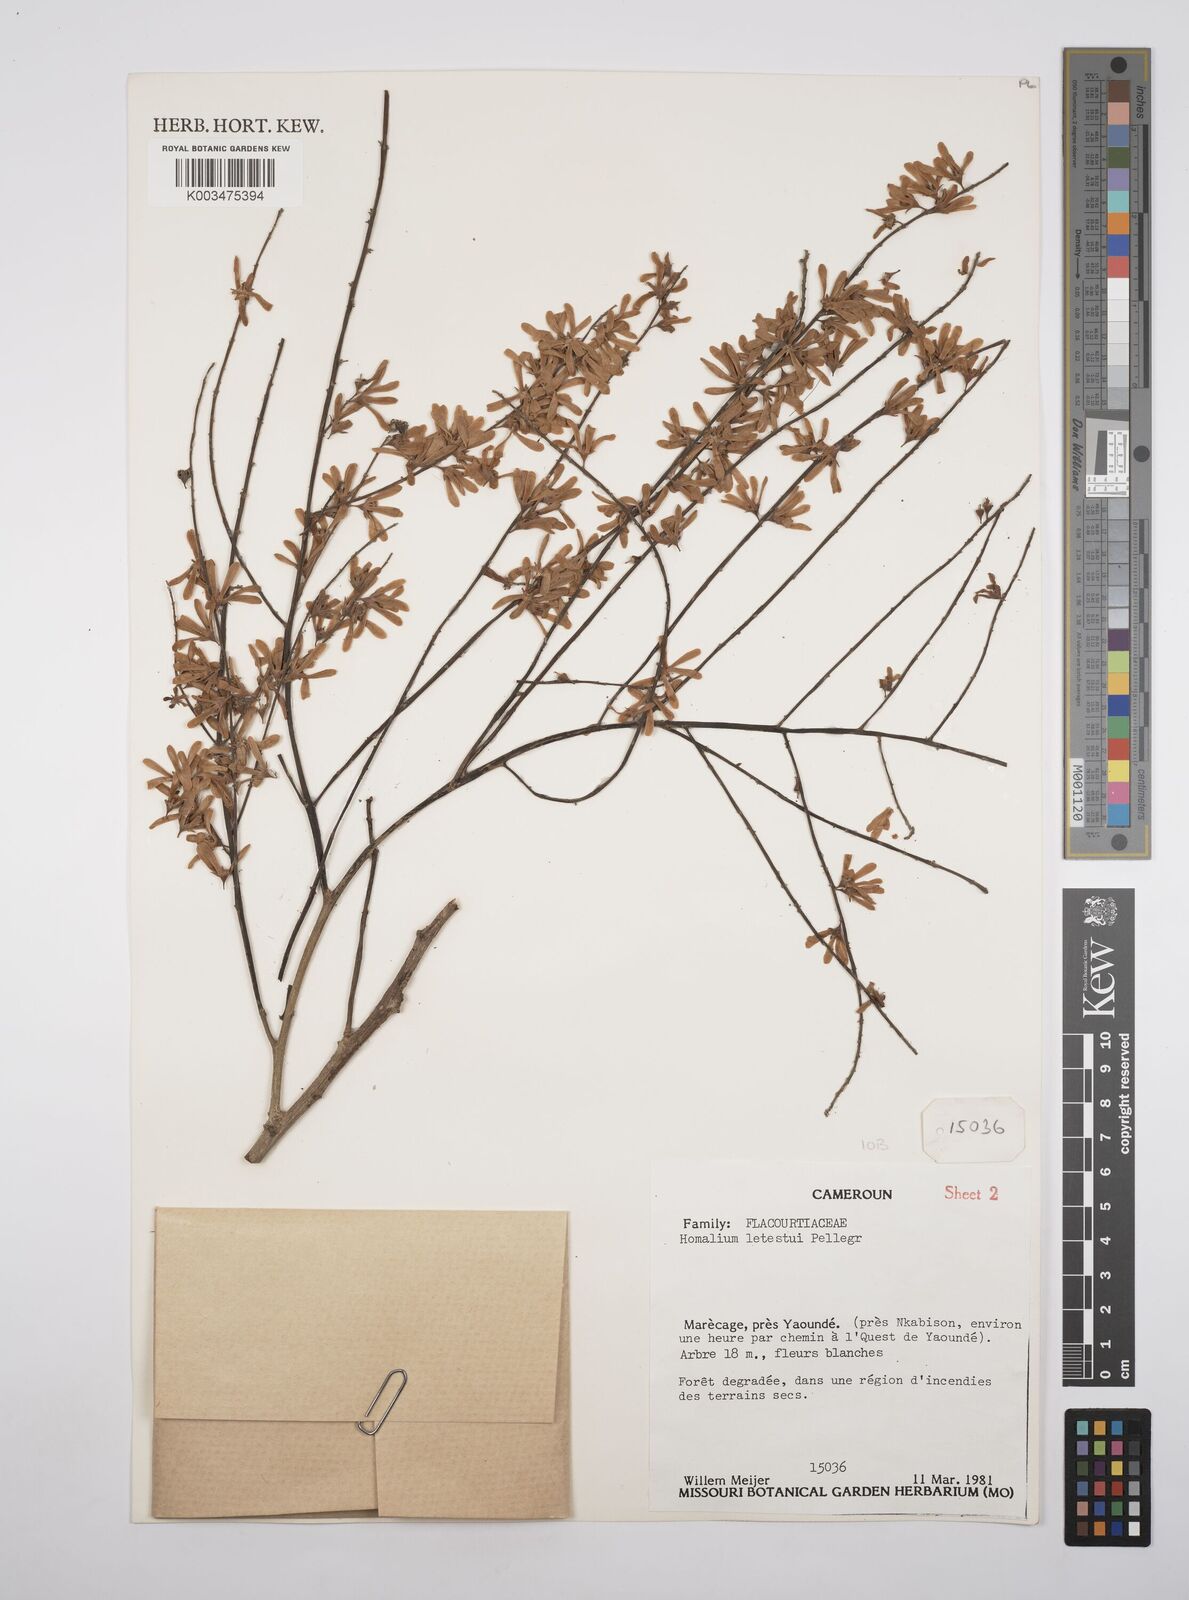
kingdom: Plantae
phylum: Tracheophyta
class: Magnoliopsida
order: Malpighiales
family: Salicaceae
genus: Homalium
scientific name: Homalium letestui
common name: African homalium
